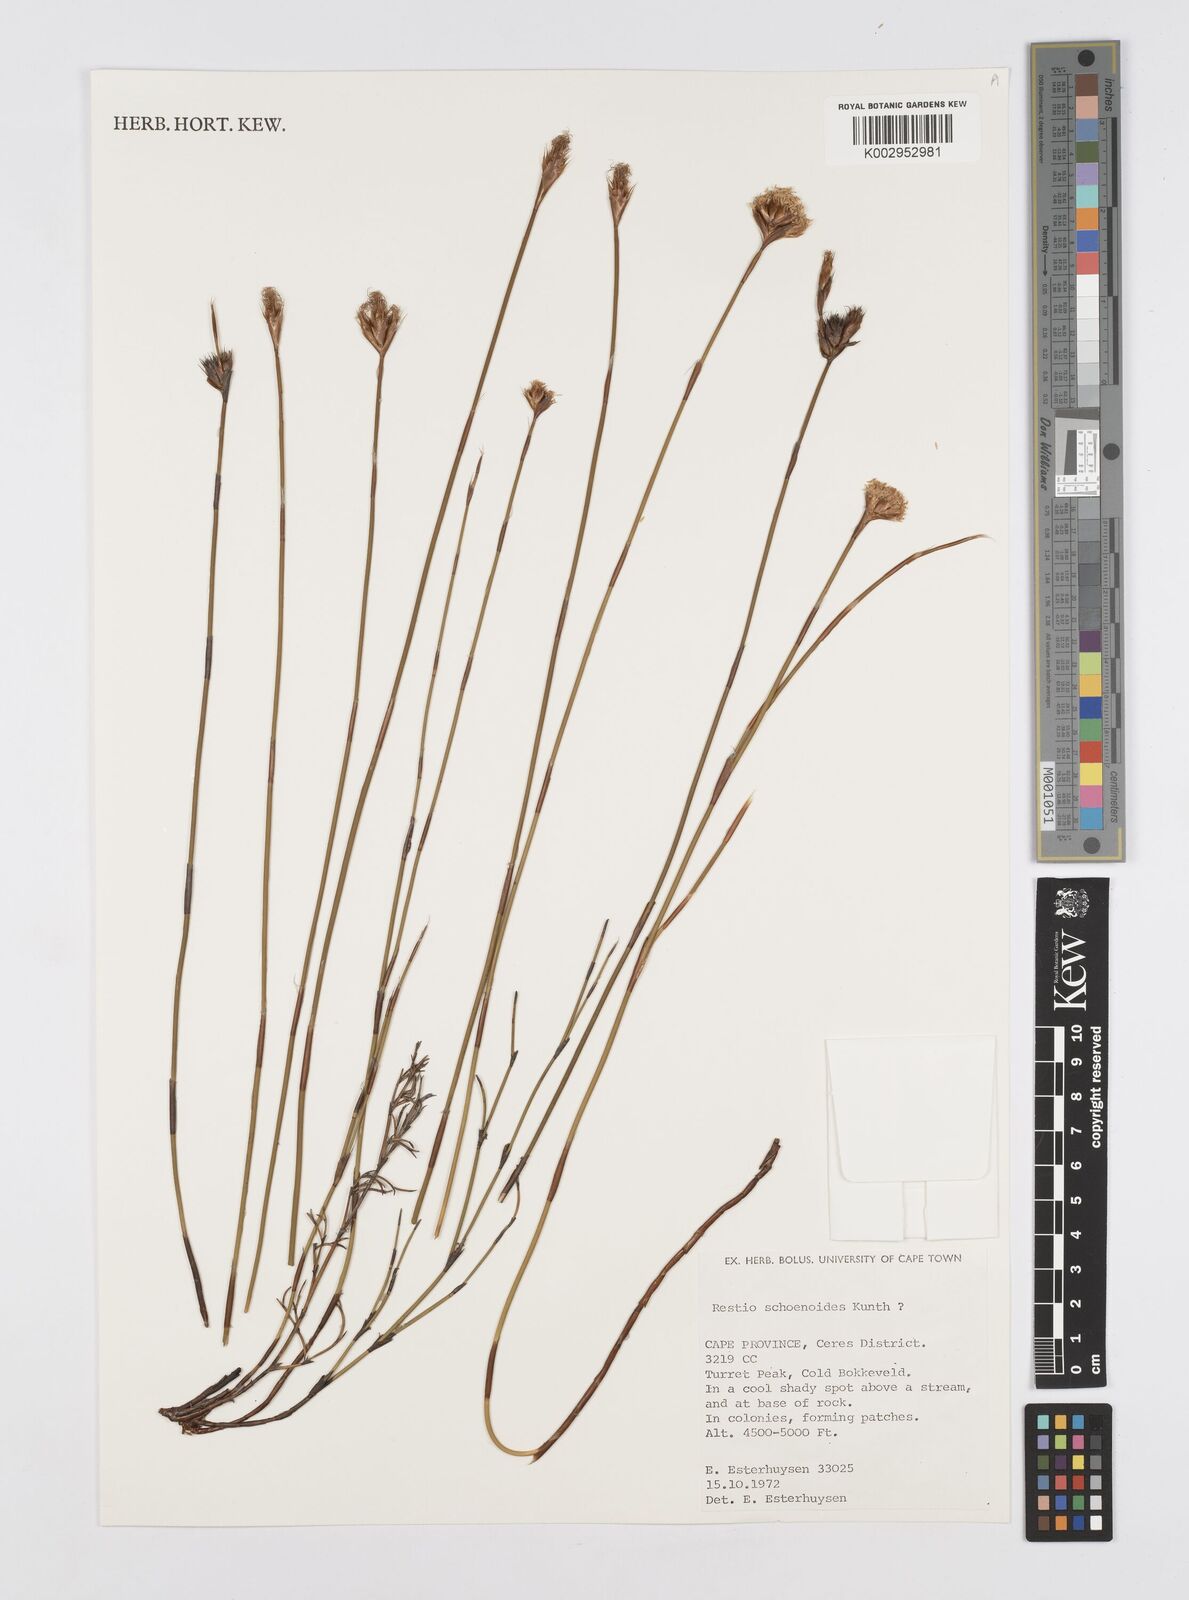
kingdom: Plantae
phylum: Tracheophyta
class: Liliopsida
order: Poales
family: Restionaceae
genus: Restio
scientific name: Restio schoenoides
